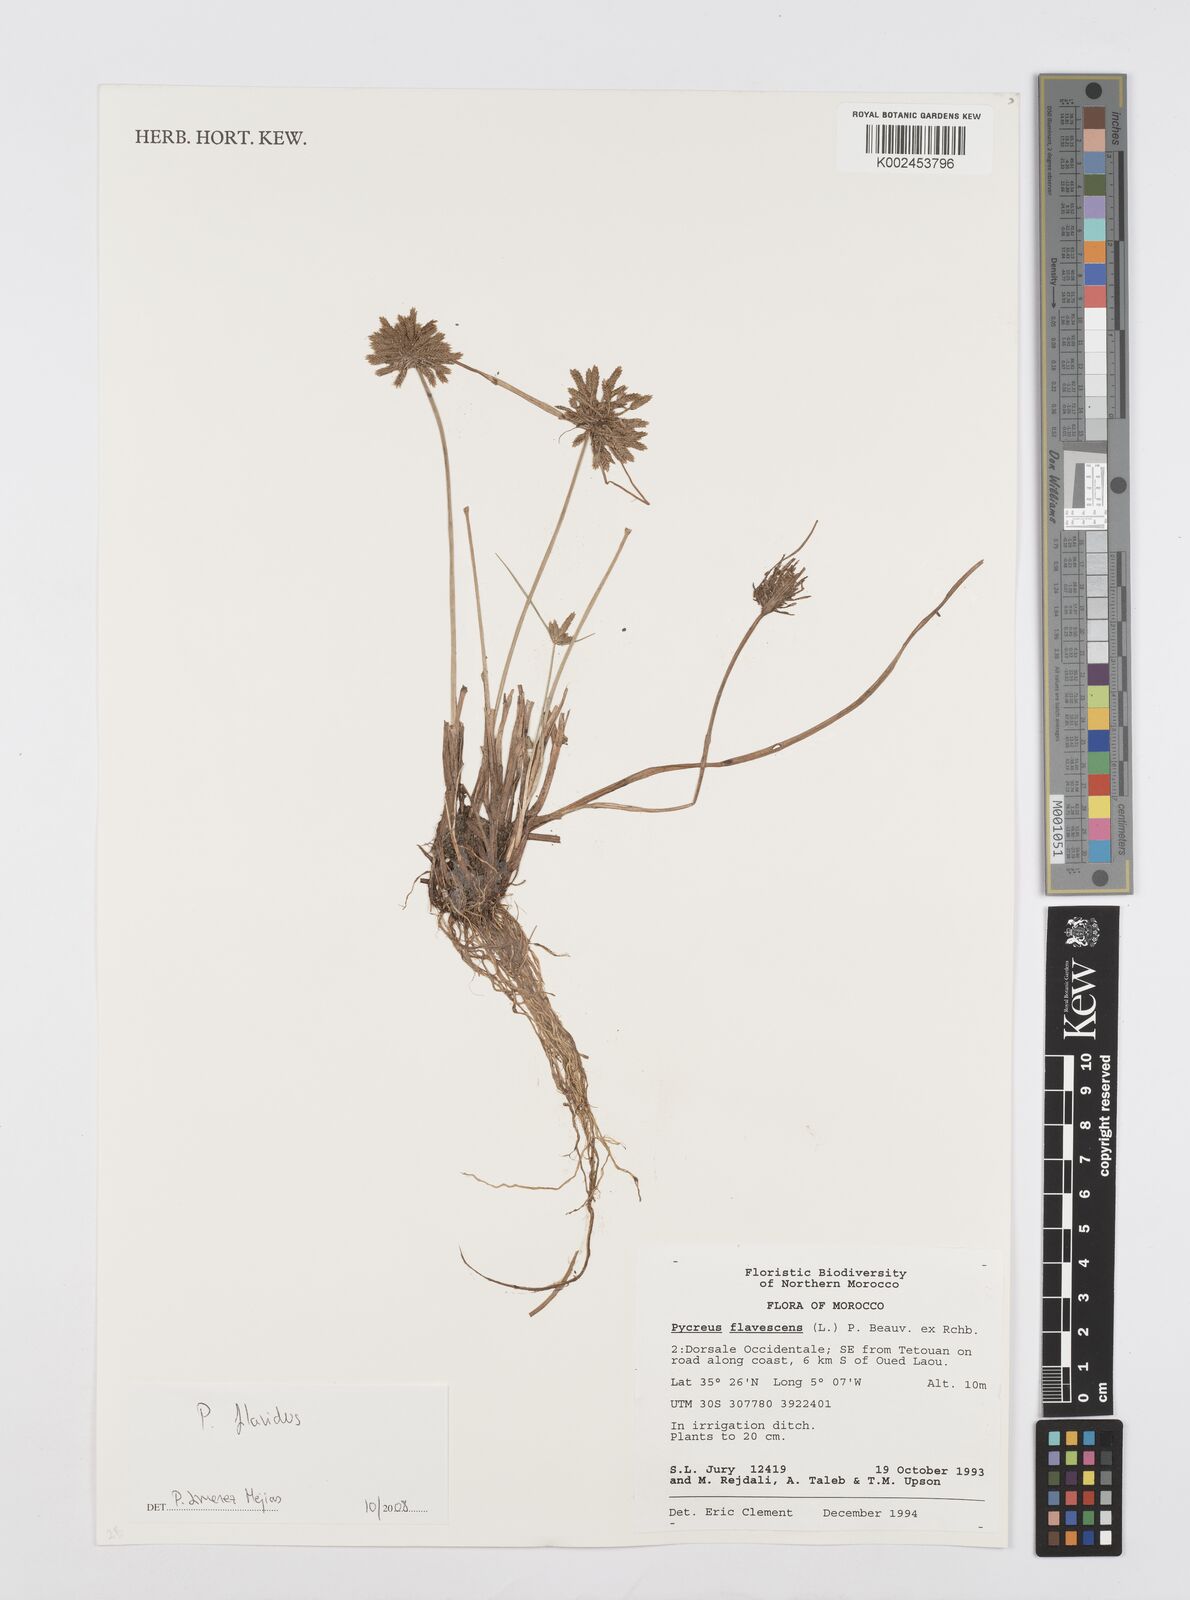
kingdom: Plantae
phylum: Tracheophyta
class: Liliopsida
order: Poales
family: Cyperaceae
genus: Cyperus
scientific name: Cyperus flavescens
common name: Yellow galingale
